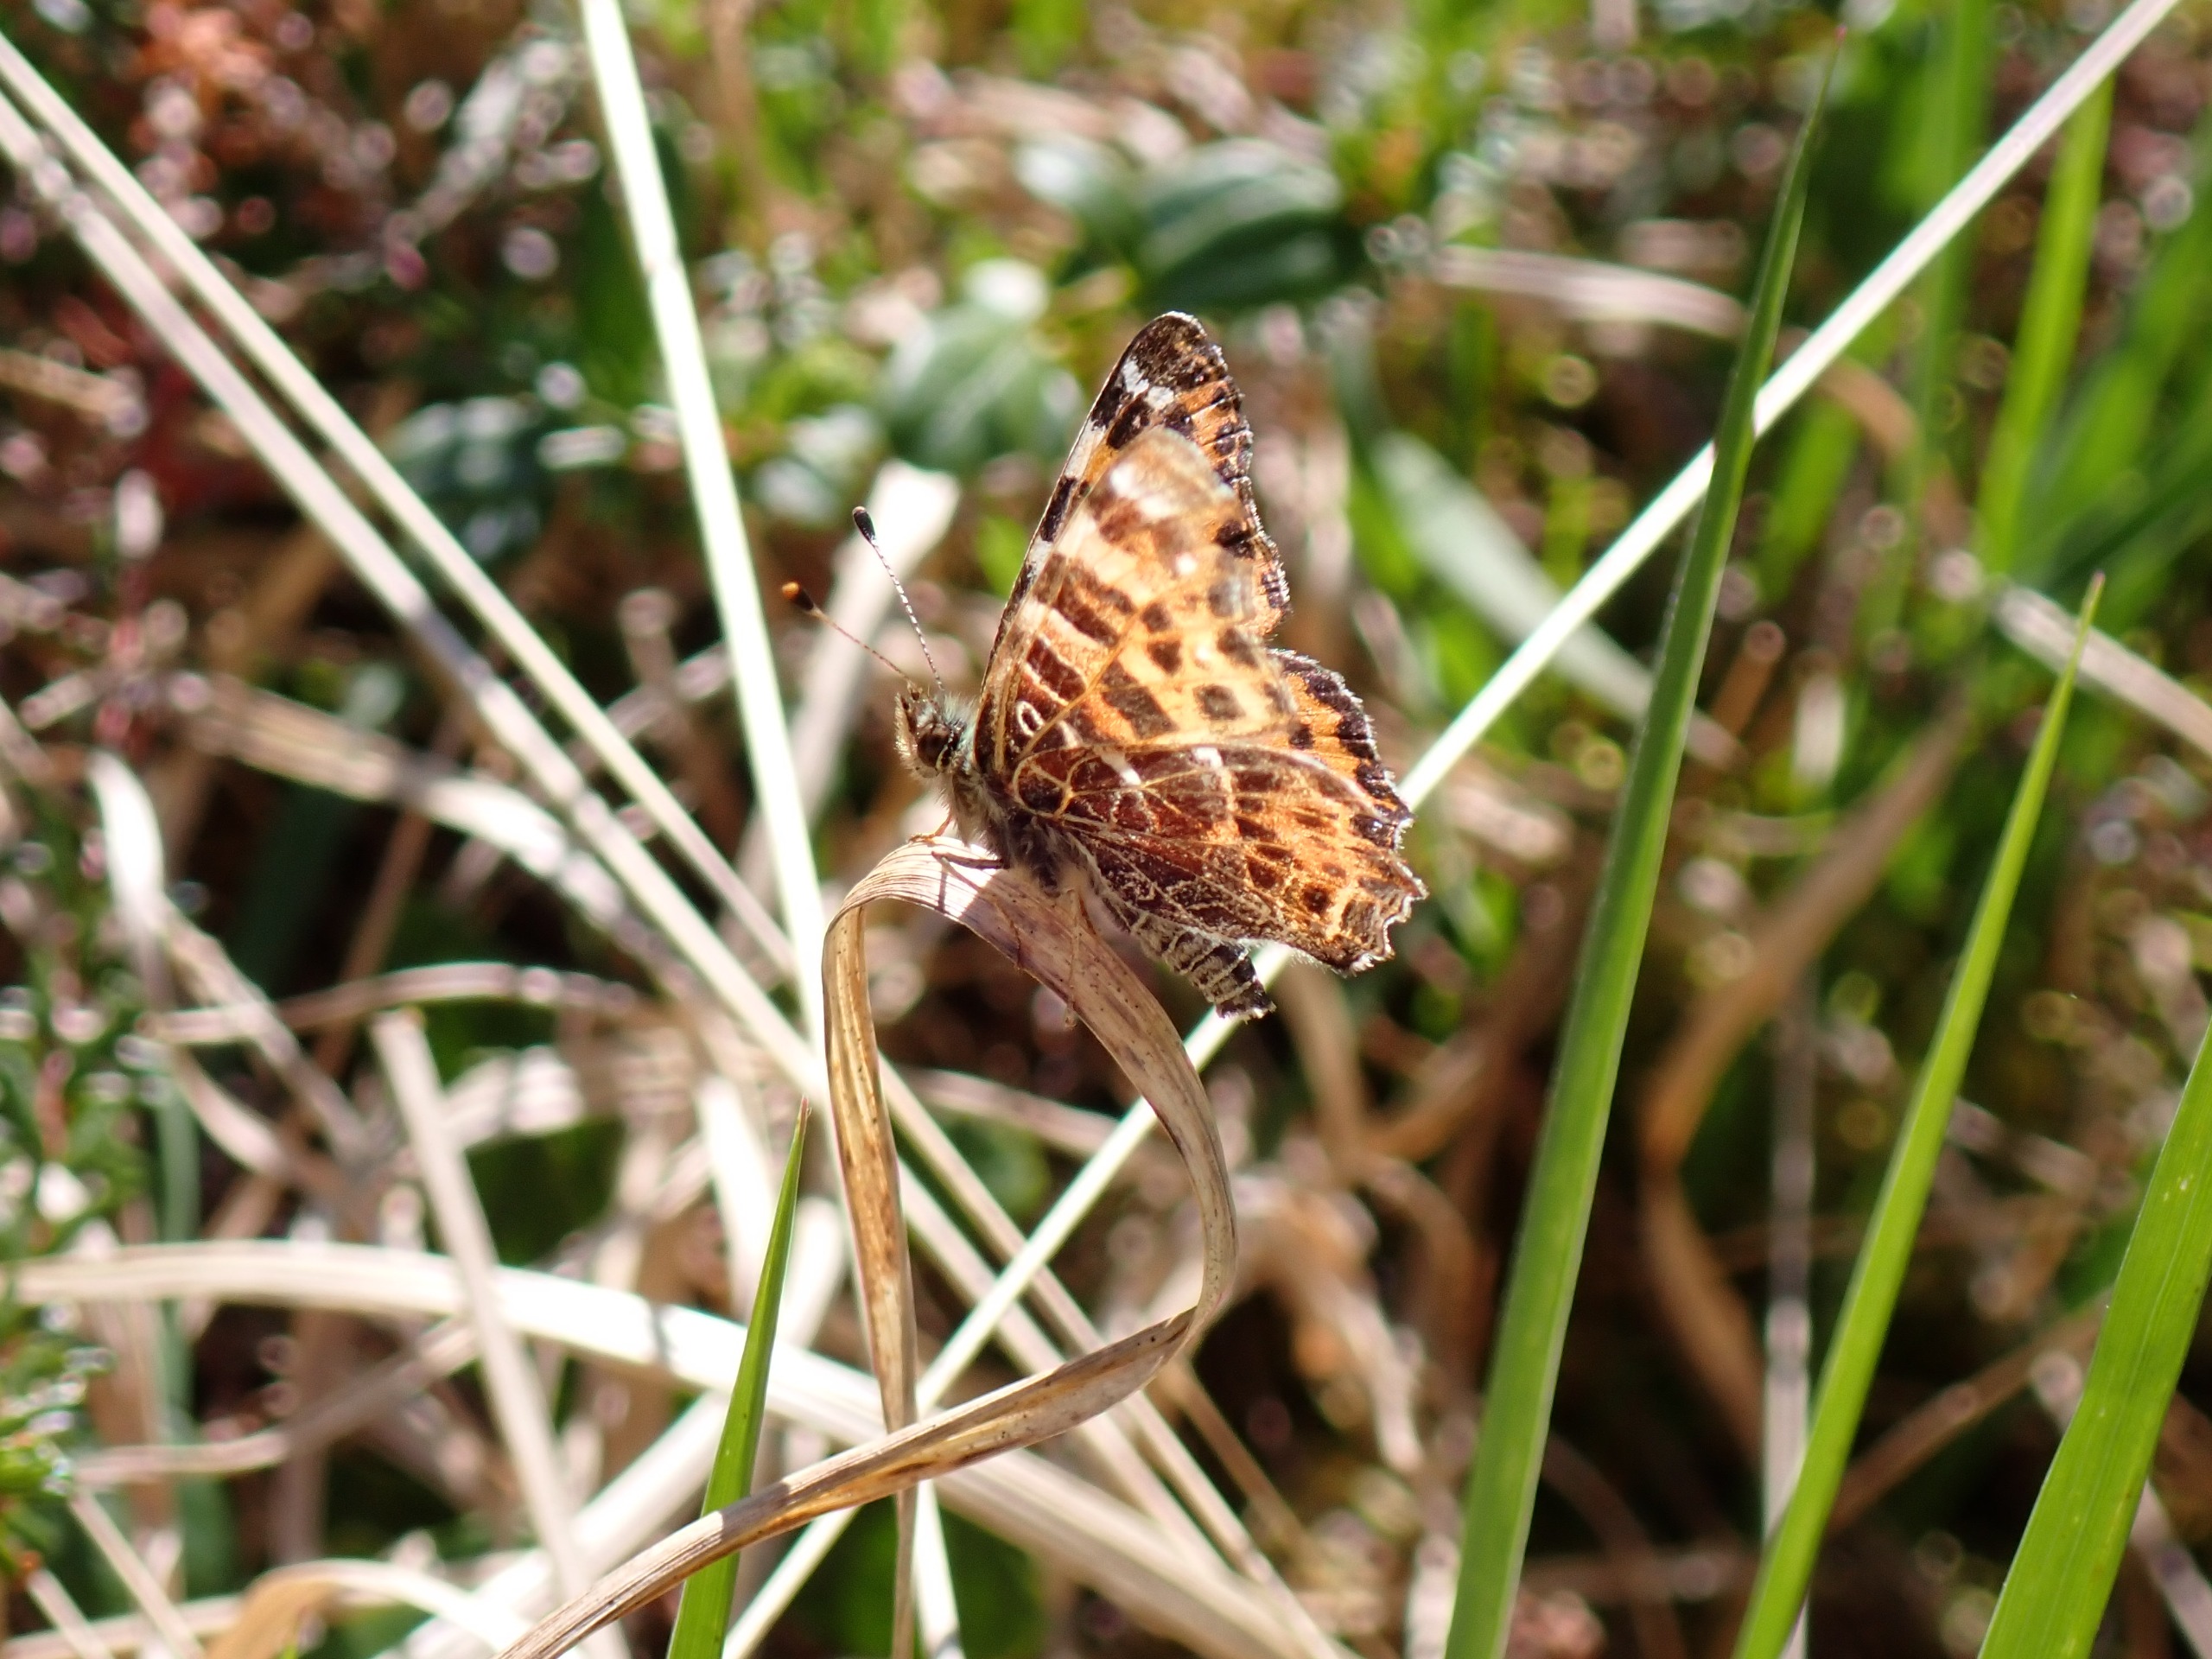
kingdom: Animalia
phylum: Arthropoda
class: Insecta
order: Lepidoptera
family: Nymphalidae
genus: Araschnia
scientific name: Araschnia levana
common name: Nældesommerfugl
